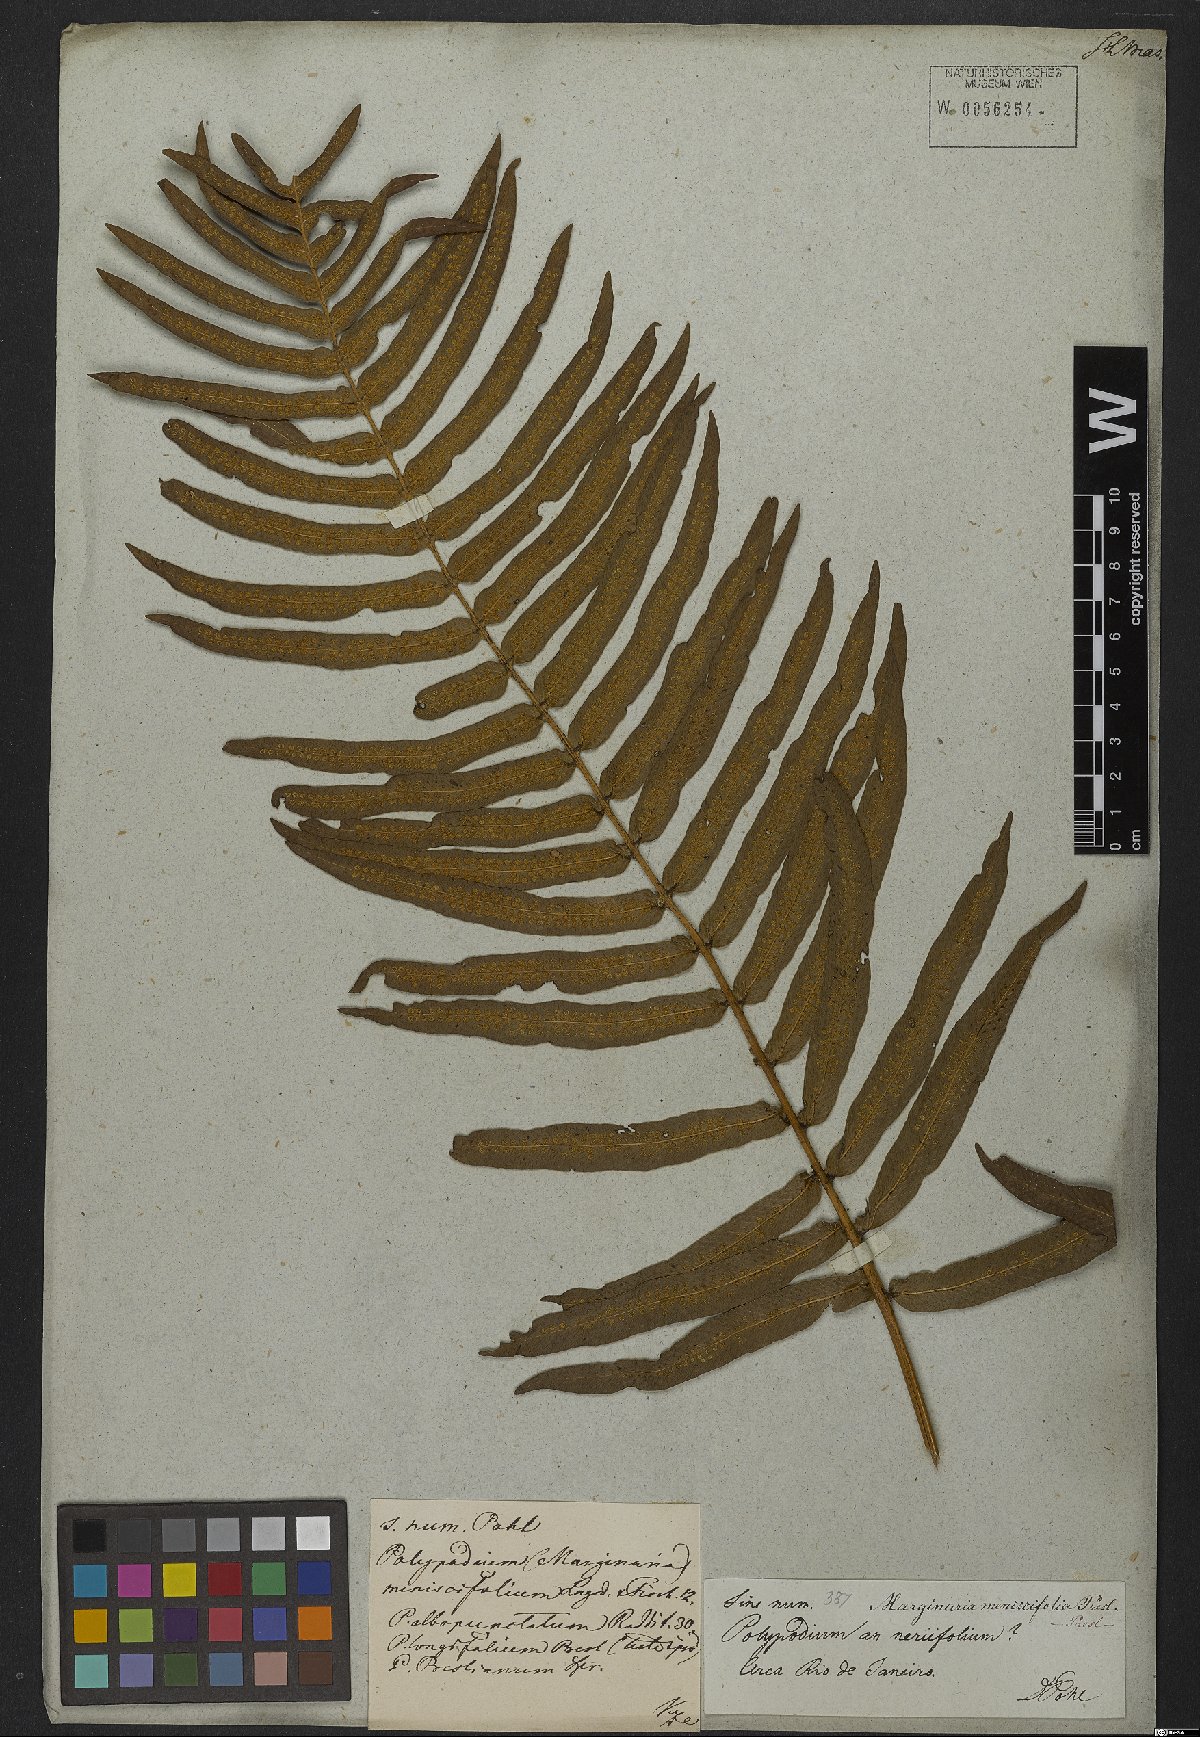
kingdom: Plantae
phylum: Tracheophyta
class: Polypodiopsida
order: Polypodiales
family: Polypodiaceae
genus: Serpocaulon
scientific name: Serpocaulon triseriale
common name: Angle-vein fern
